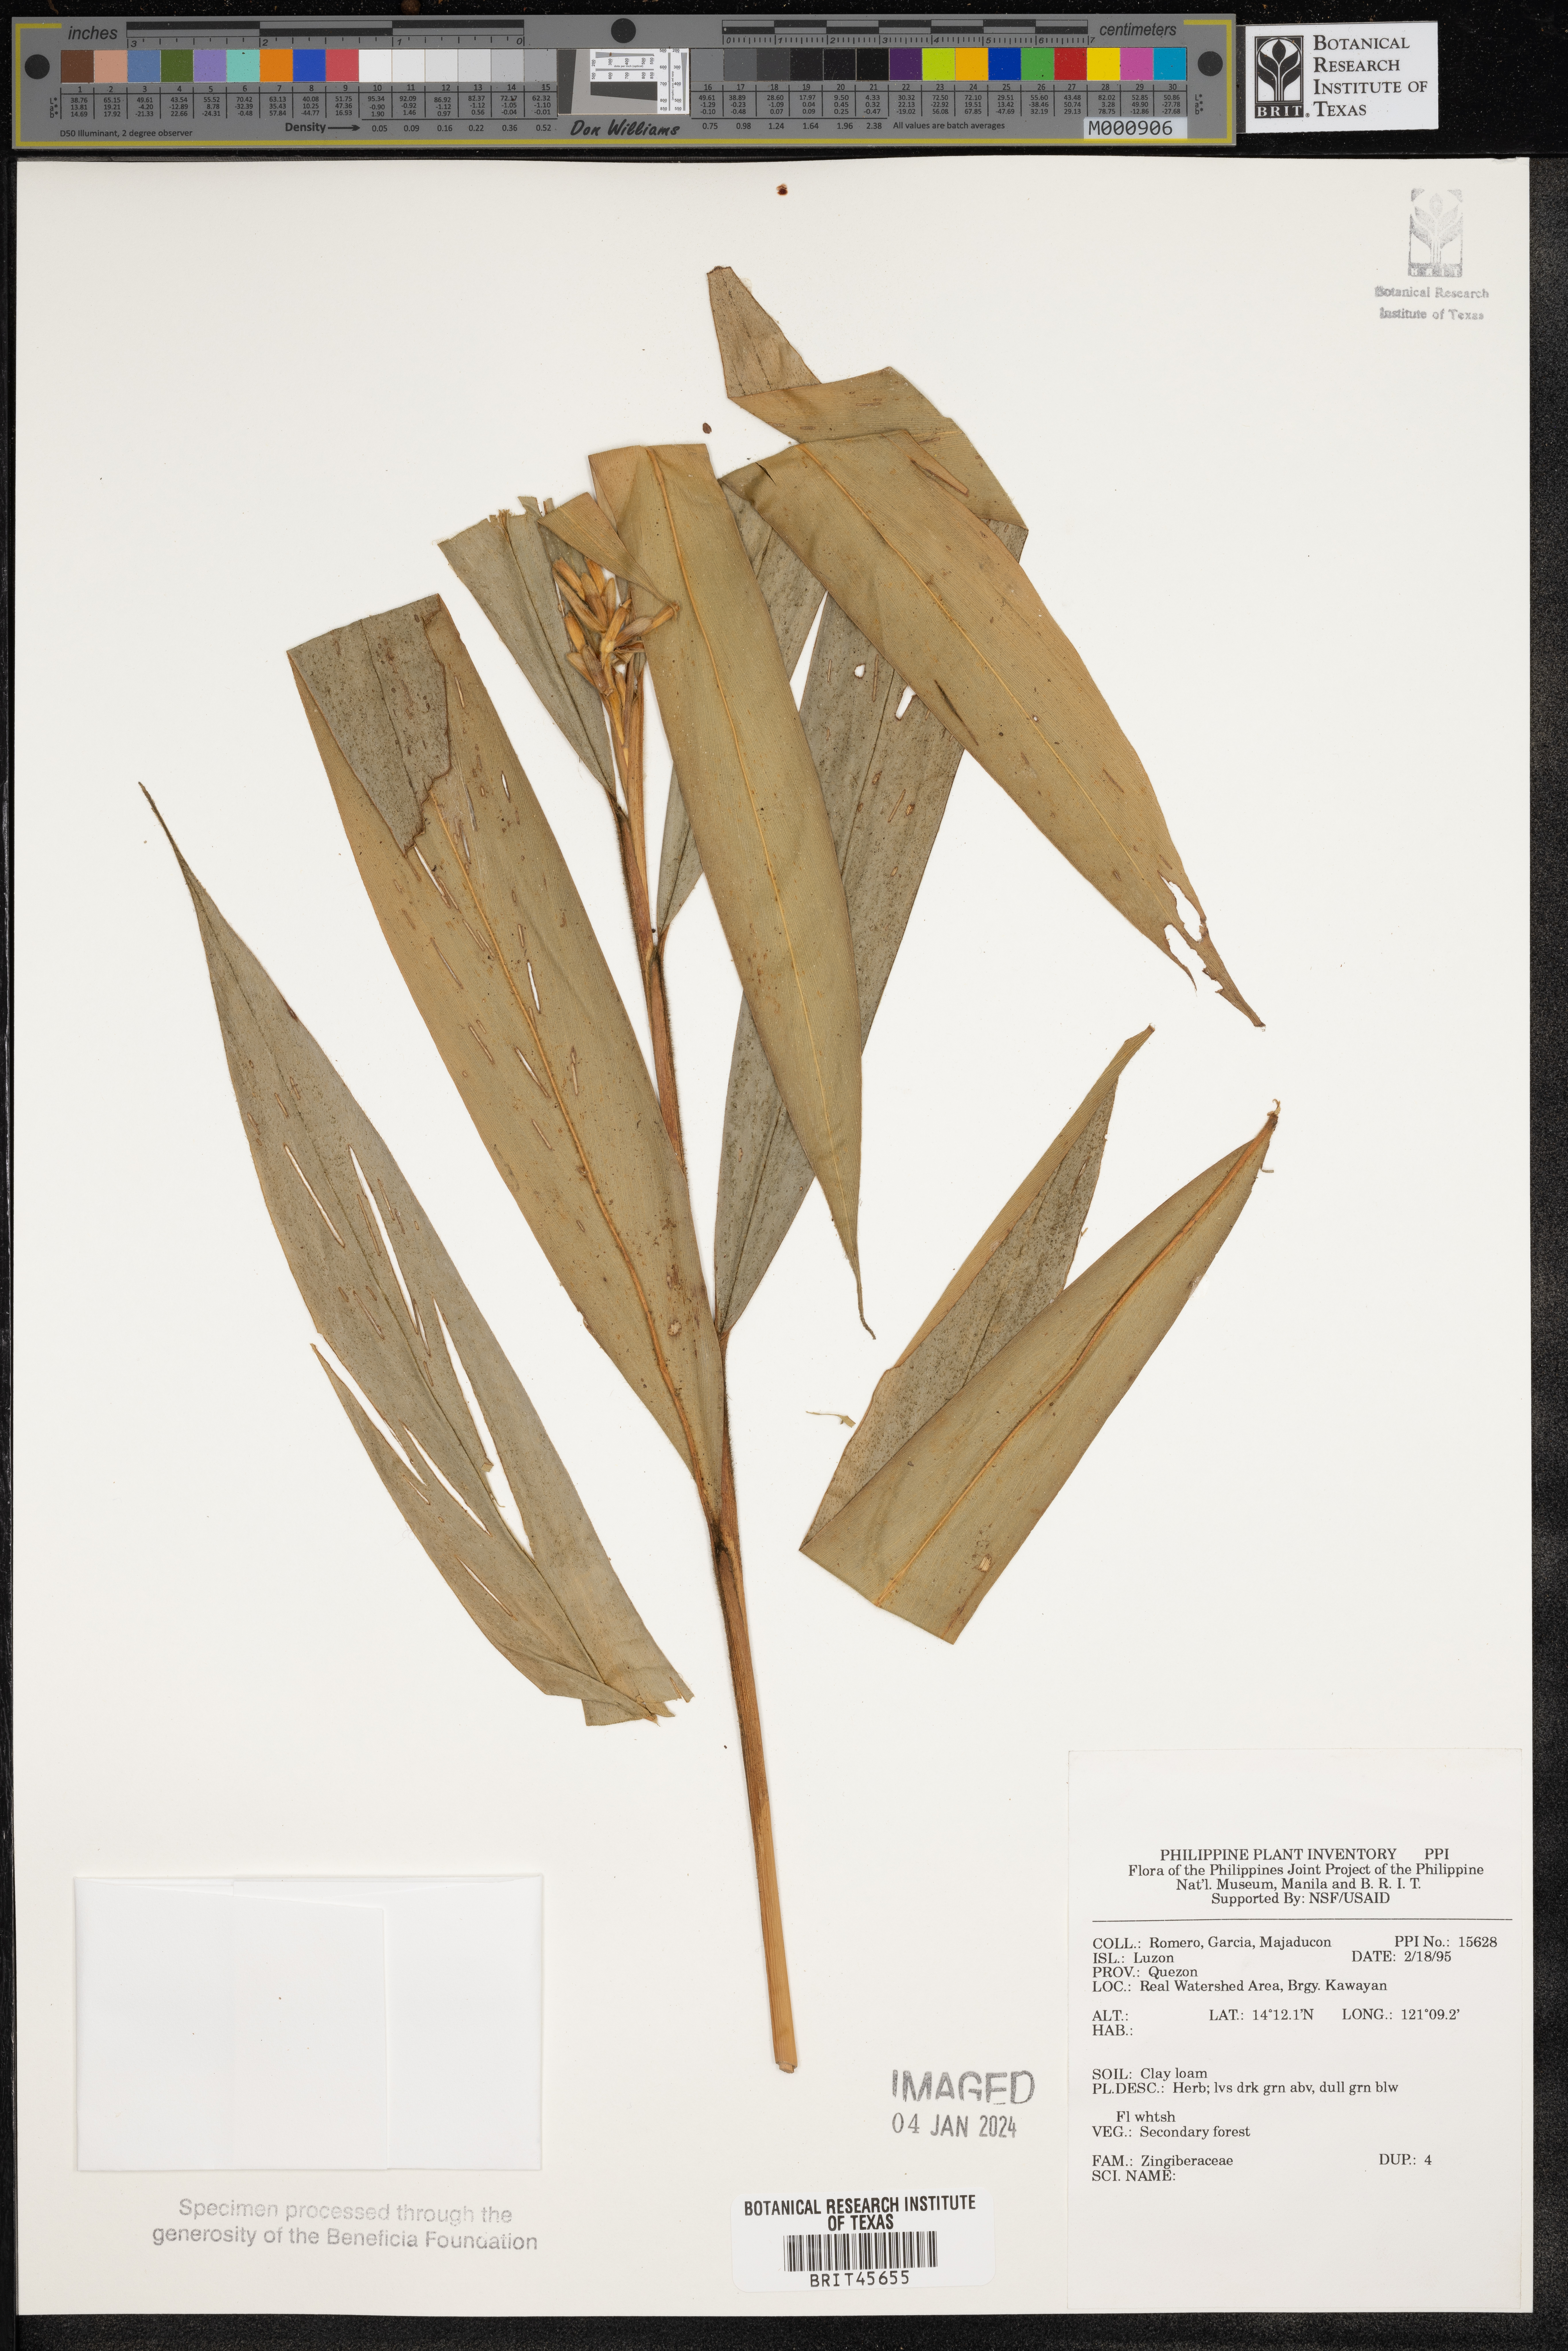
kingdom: Plantae
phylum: Tracheophyta
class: Liliopsida
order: Zingiberales
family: Zingiberaceae
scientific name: Zingiberaceae
